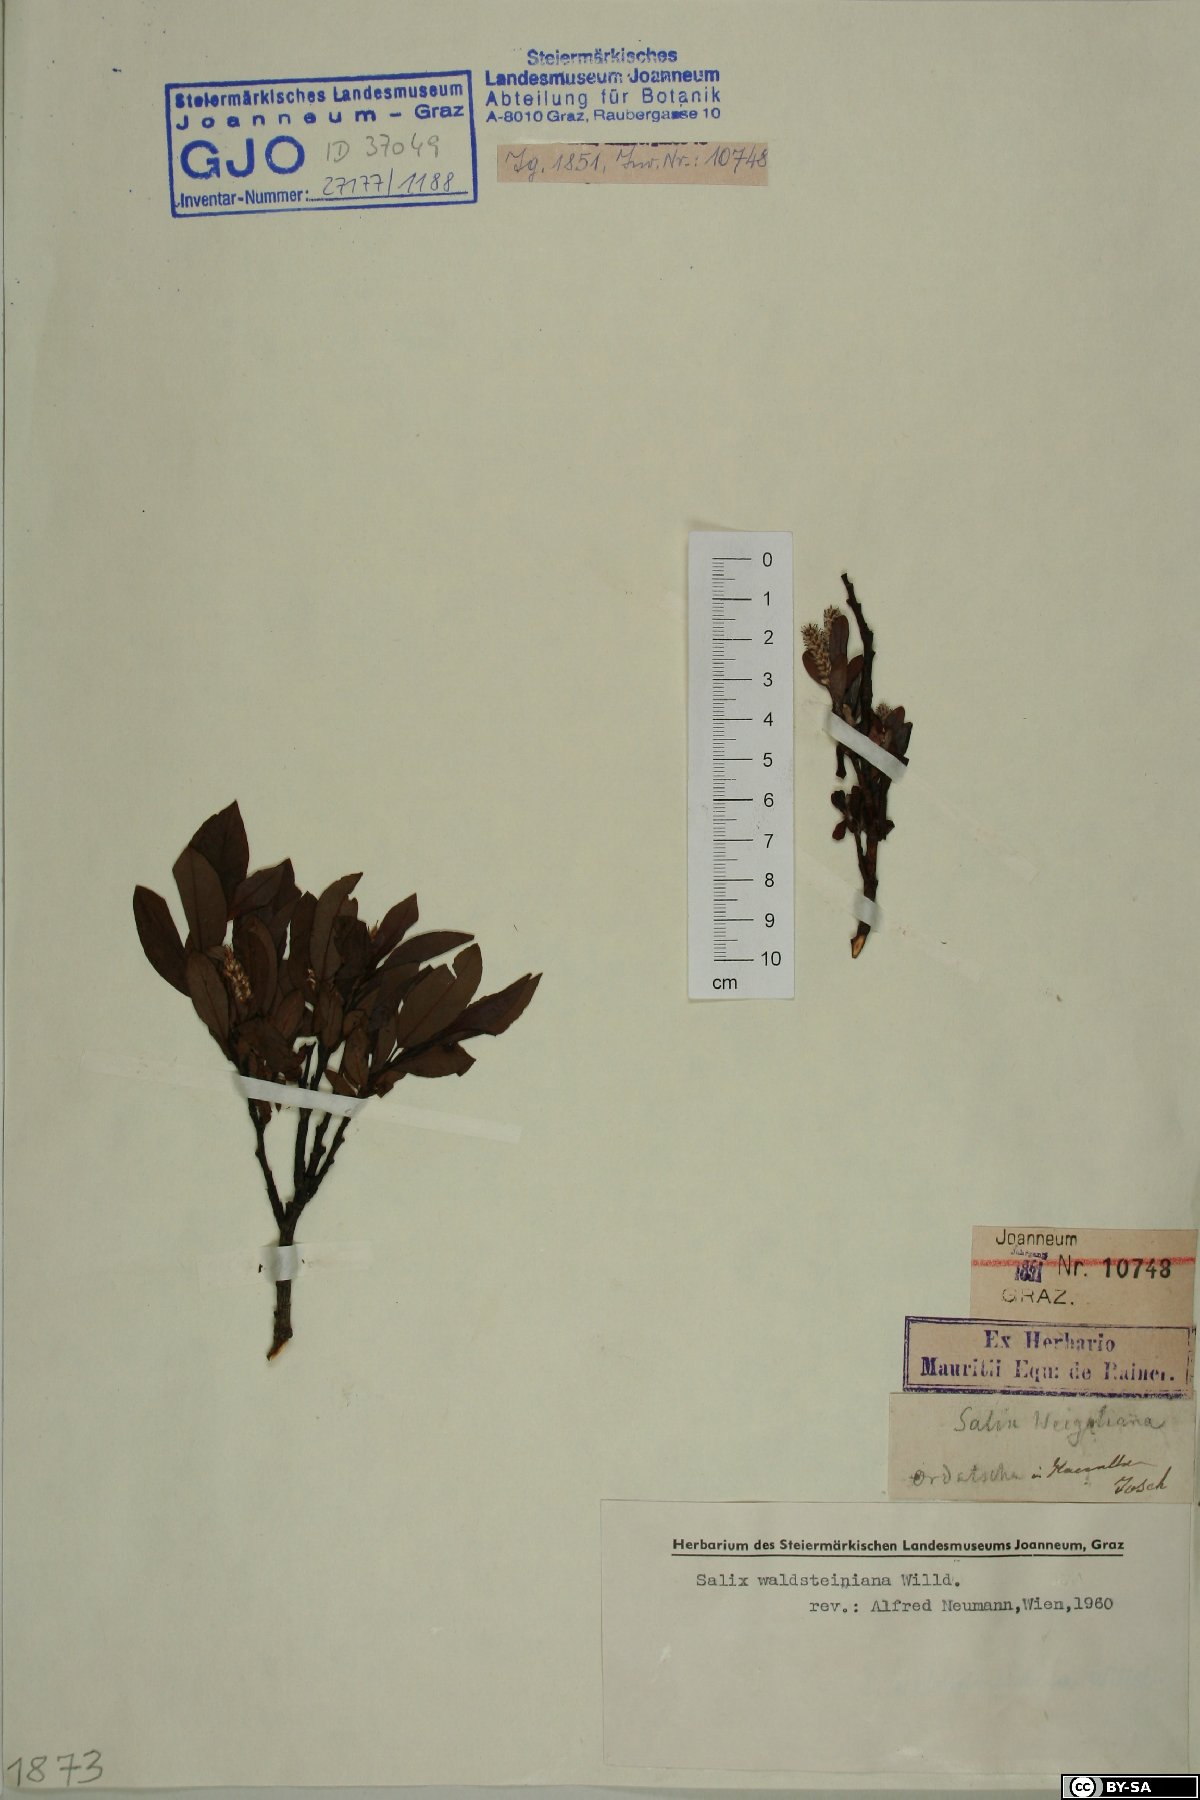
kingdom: Plantae
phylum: Tracheophyta
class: Magnoliopsida
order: Malpighiales
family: Salicaceae
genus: Salix
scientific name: Salix waldsteiniana
